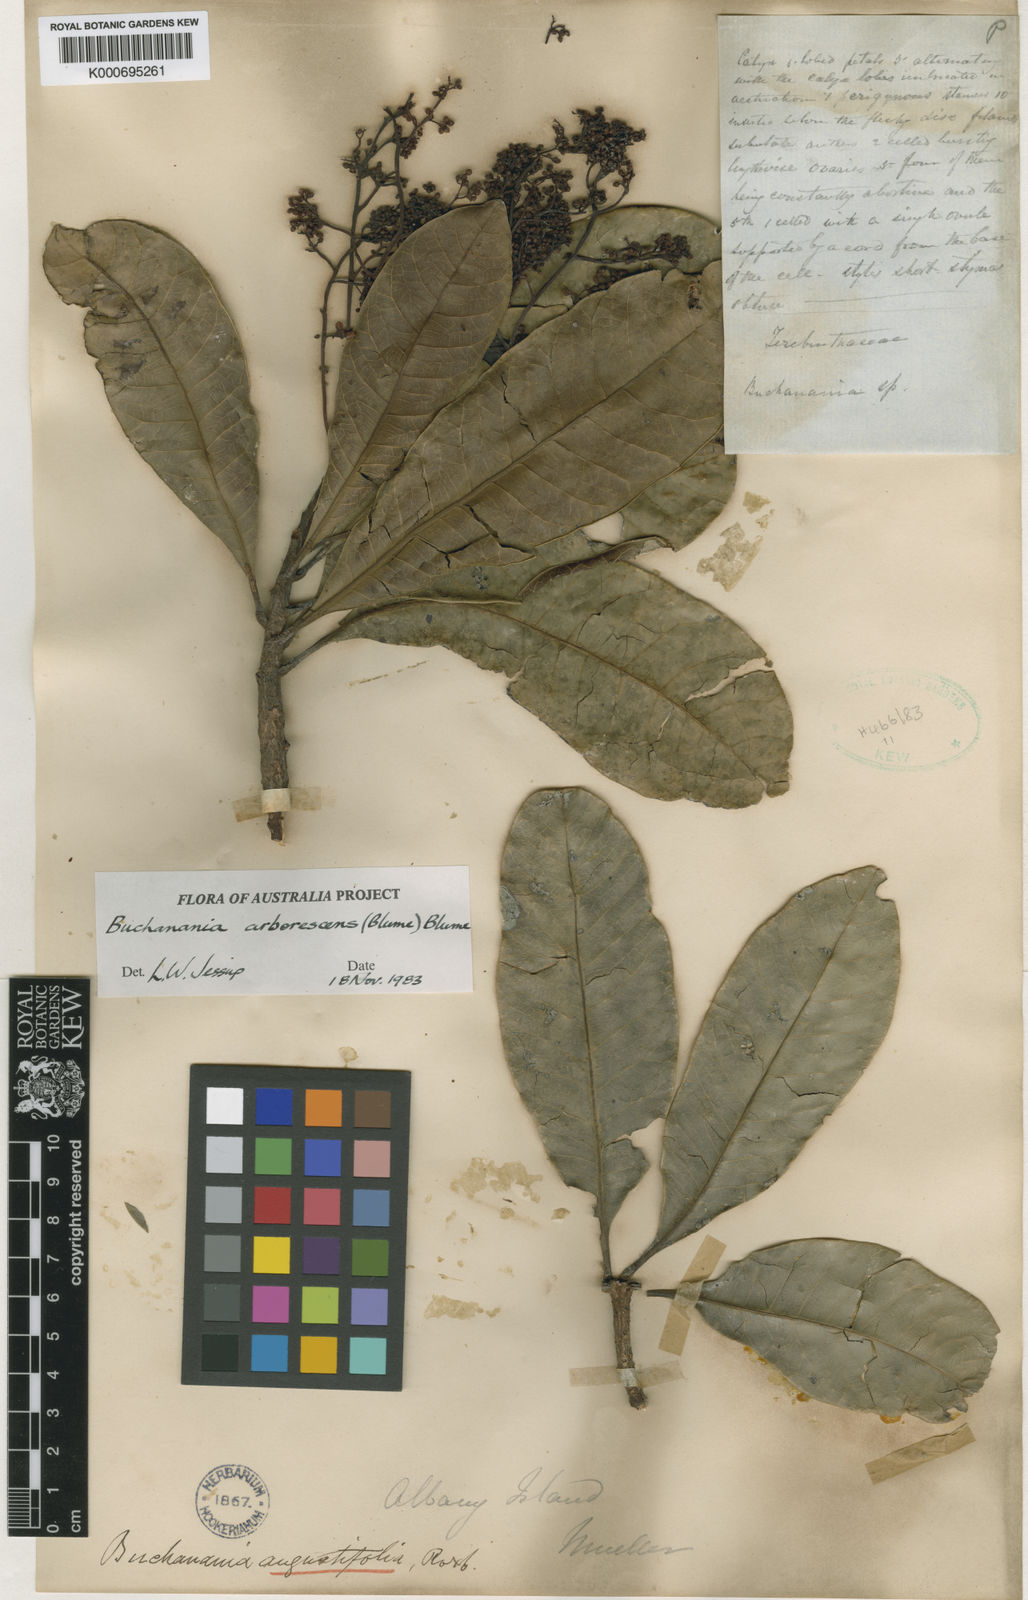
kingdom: Plantae
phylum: Tracheophyta
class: Magnoliopsida
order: Sapindales
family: Anacardiaceae
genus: Buchanania
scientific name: Buchanania arborescens
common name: Sparrow’s mango
